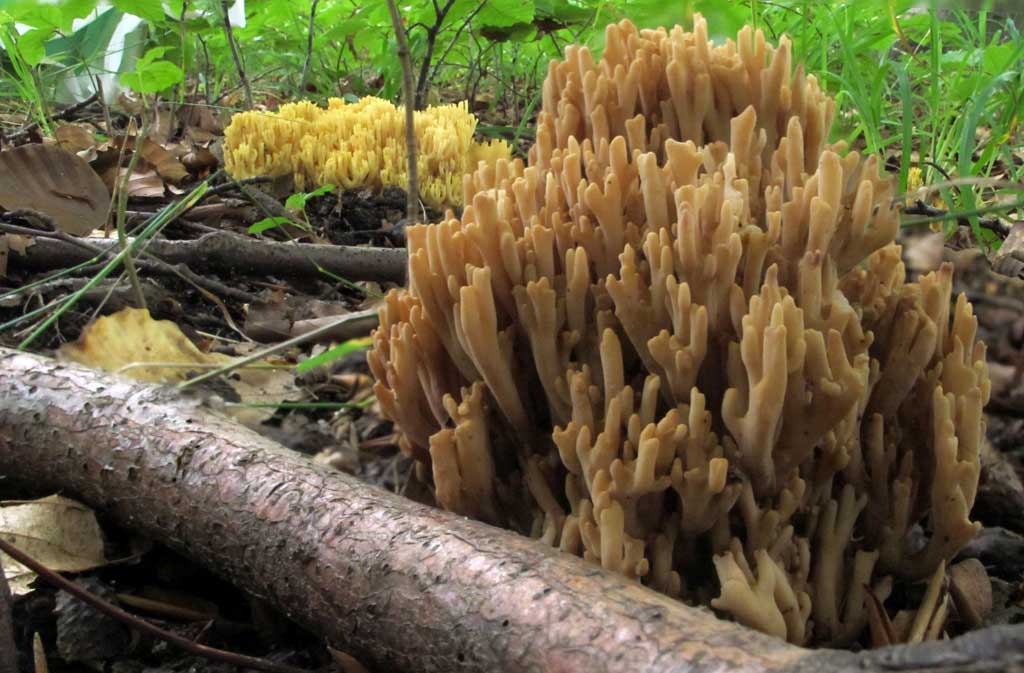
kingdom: Fungi
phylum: Basidiomycota
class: Agaricomycetes
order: Gomphales
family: Gomphaceae
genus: Ramaria
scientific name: Ramaria stricta
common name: rank koralsvamp
